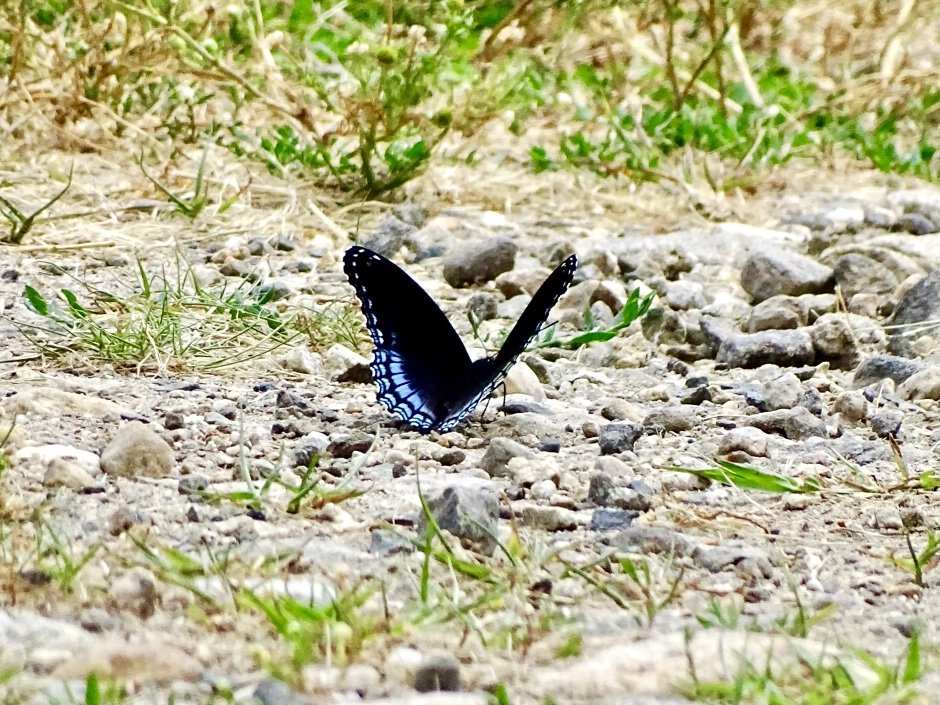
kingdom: Animalia
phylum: Arthropoda
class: Insecta
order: Lepidoptera
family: Nymphalidae
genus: Limenitis
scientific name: Limenitis arthemis
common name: Red-spotted Admiral
